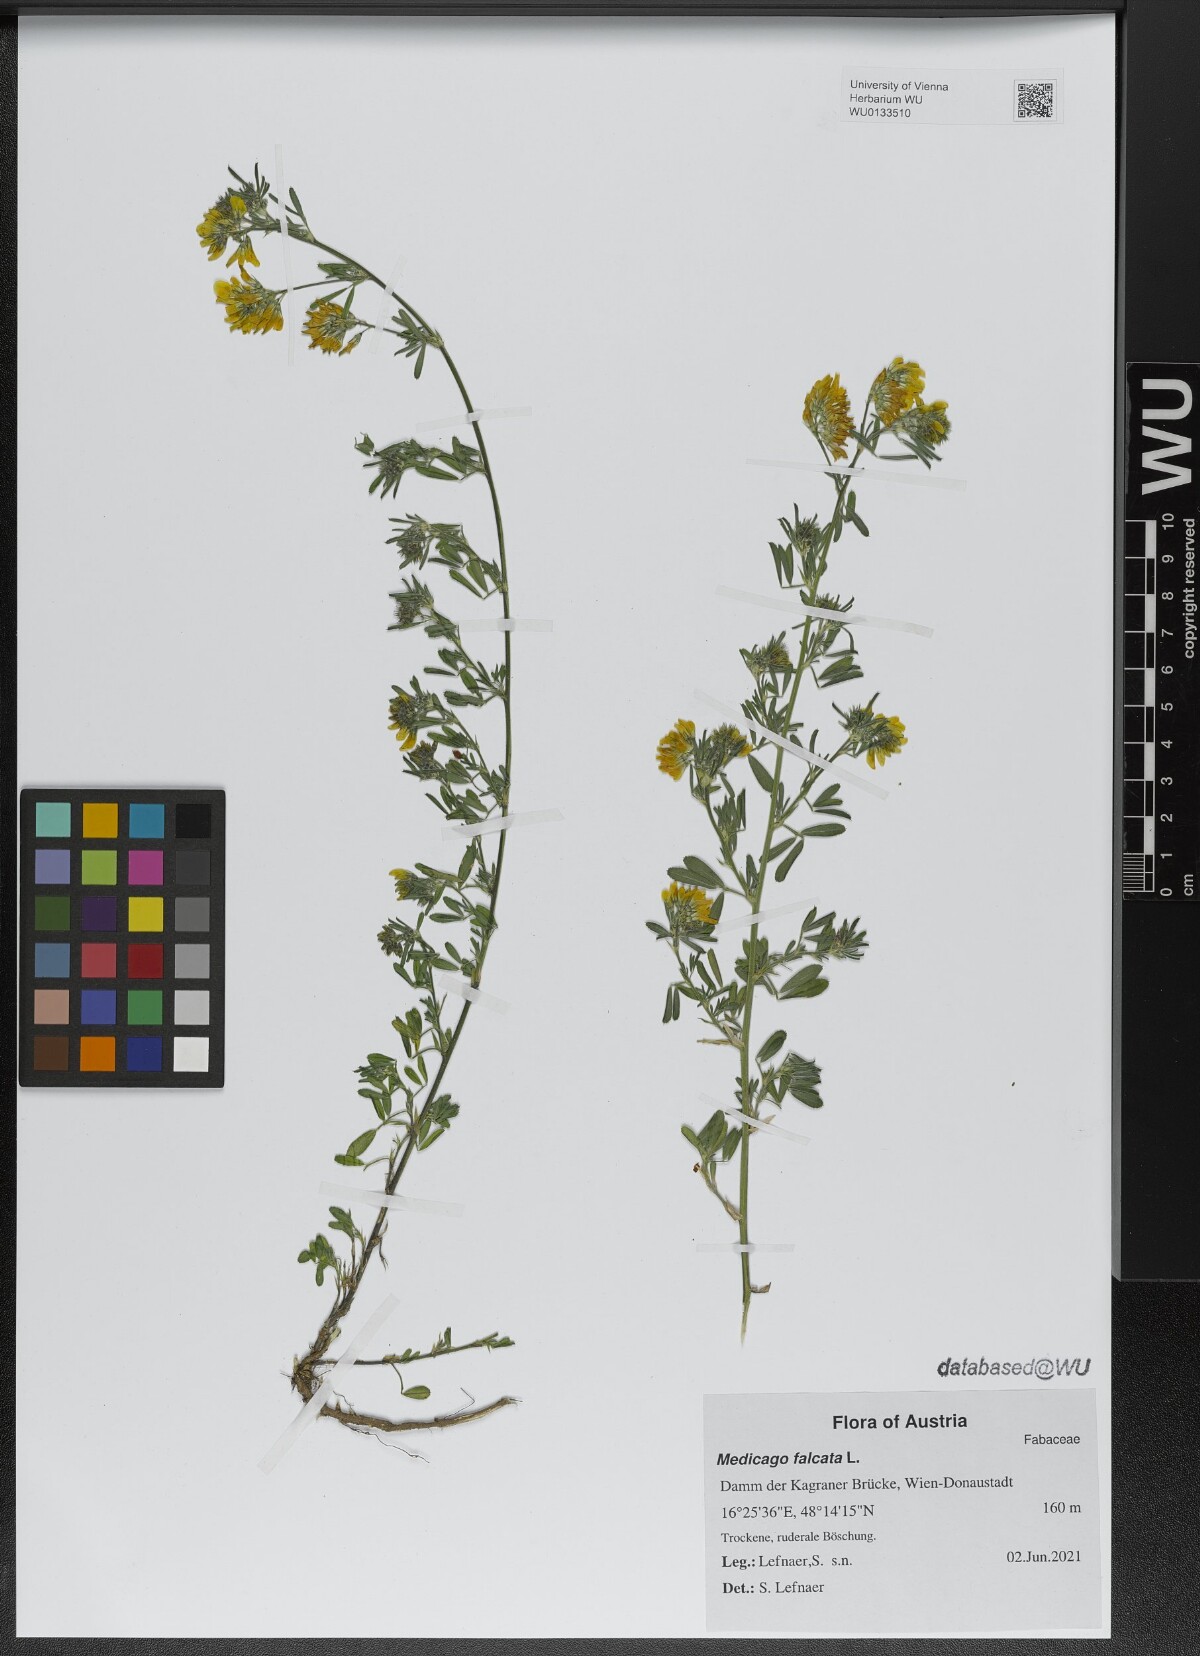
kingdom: Plantae
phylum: Tracheophyta
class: Magnoliopsida
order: Fabales
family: Fabaceae
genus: Medicago
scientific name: Medicago falcata
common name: Sickle medick
